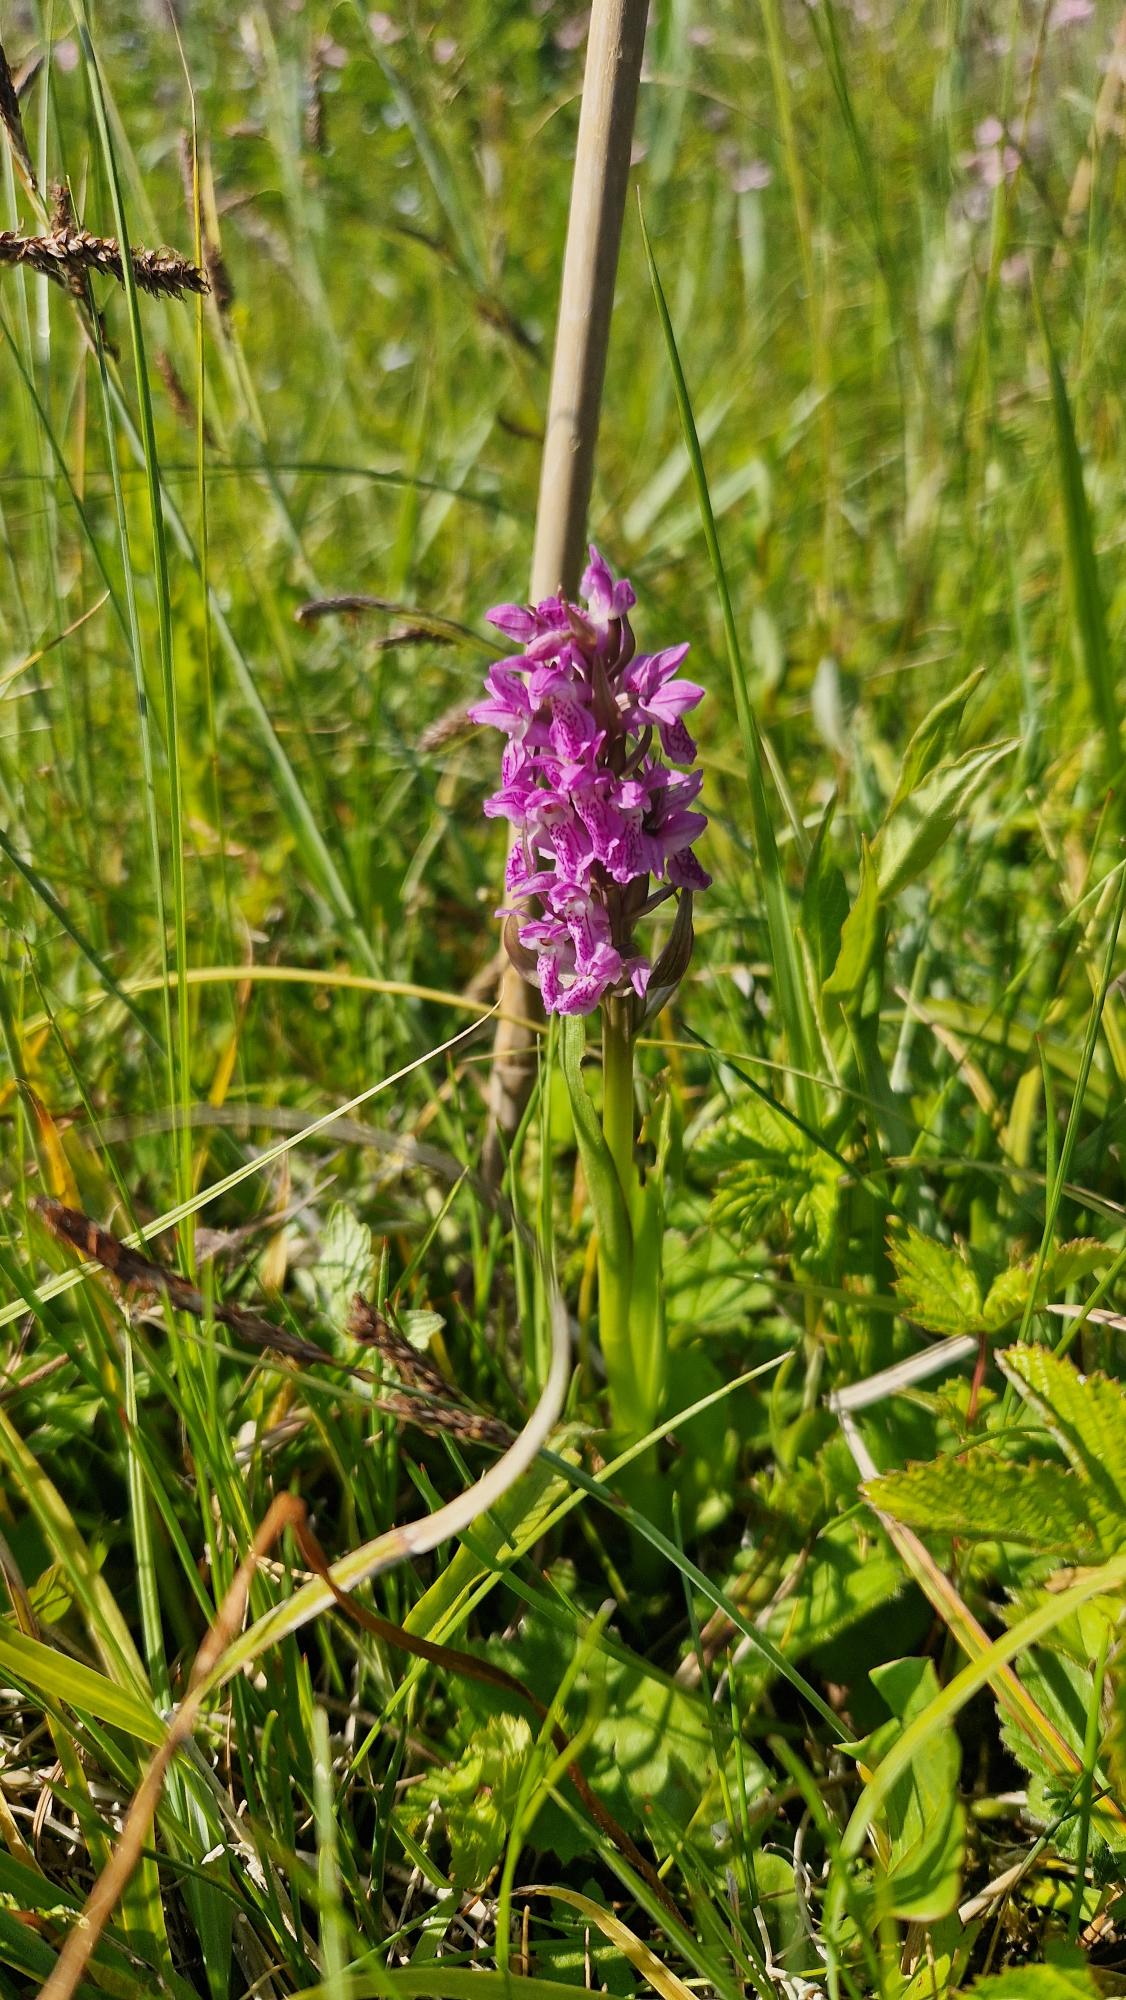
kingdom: Plantae
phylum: Tracheophyta
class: Liliopsida
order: Asparagales
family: Orchidaceae
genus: Dactylorhiza
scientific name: Dactylorhiza incarnata
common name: Kødfarvet gøgeurt
